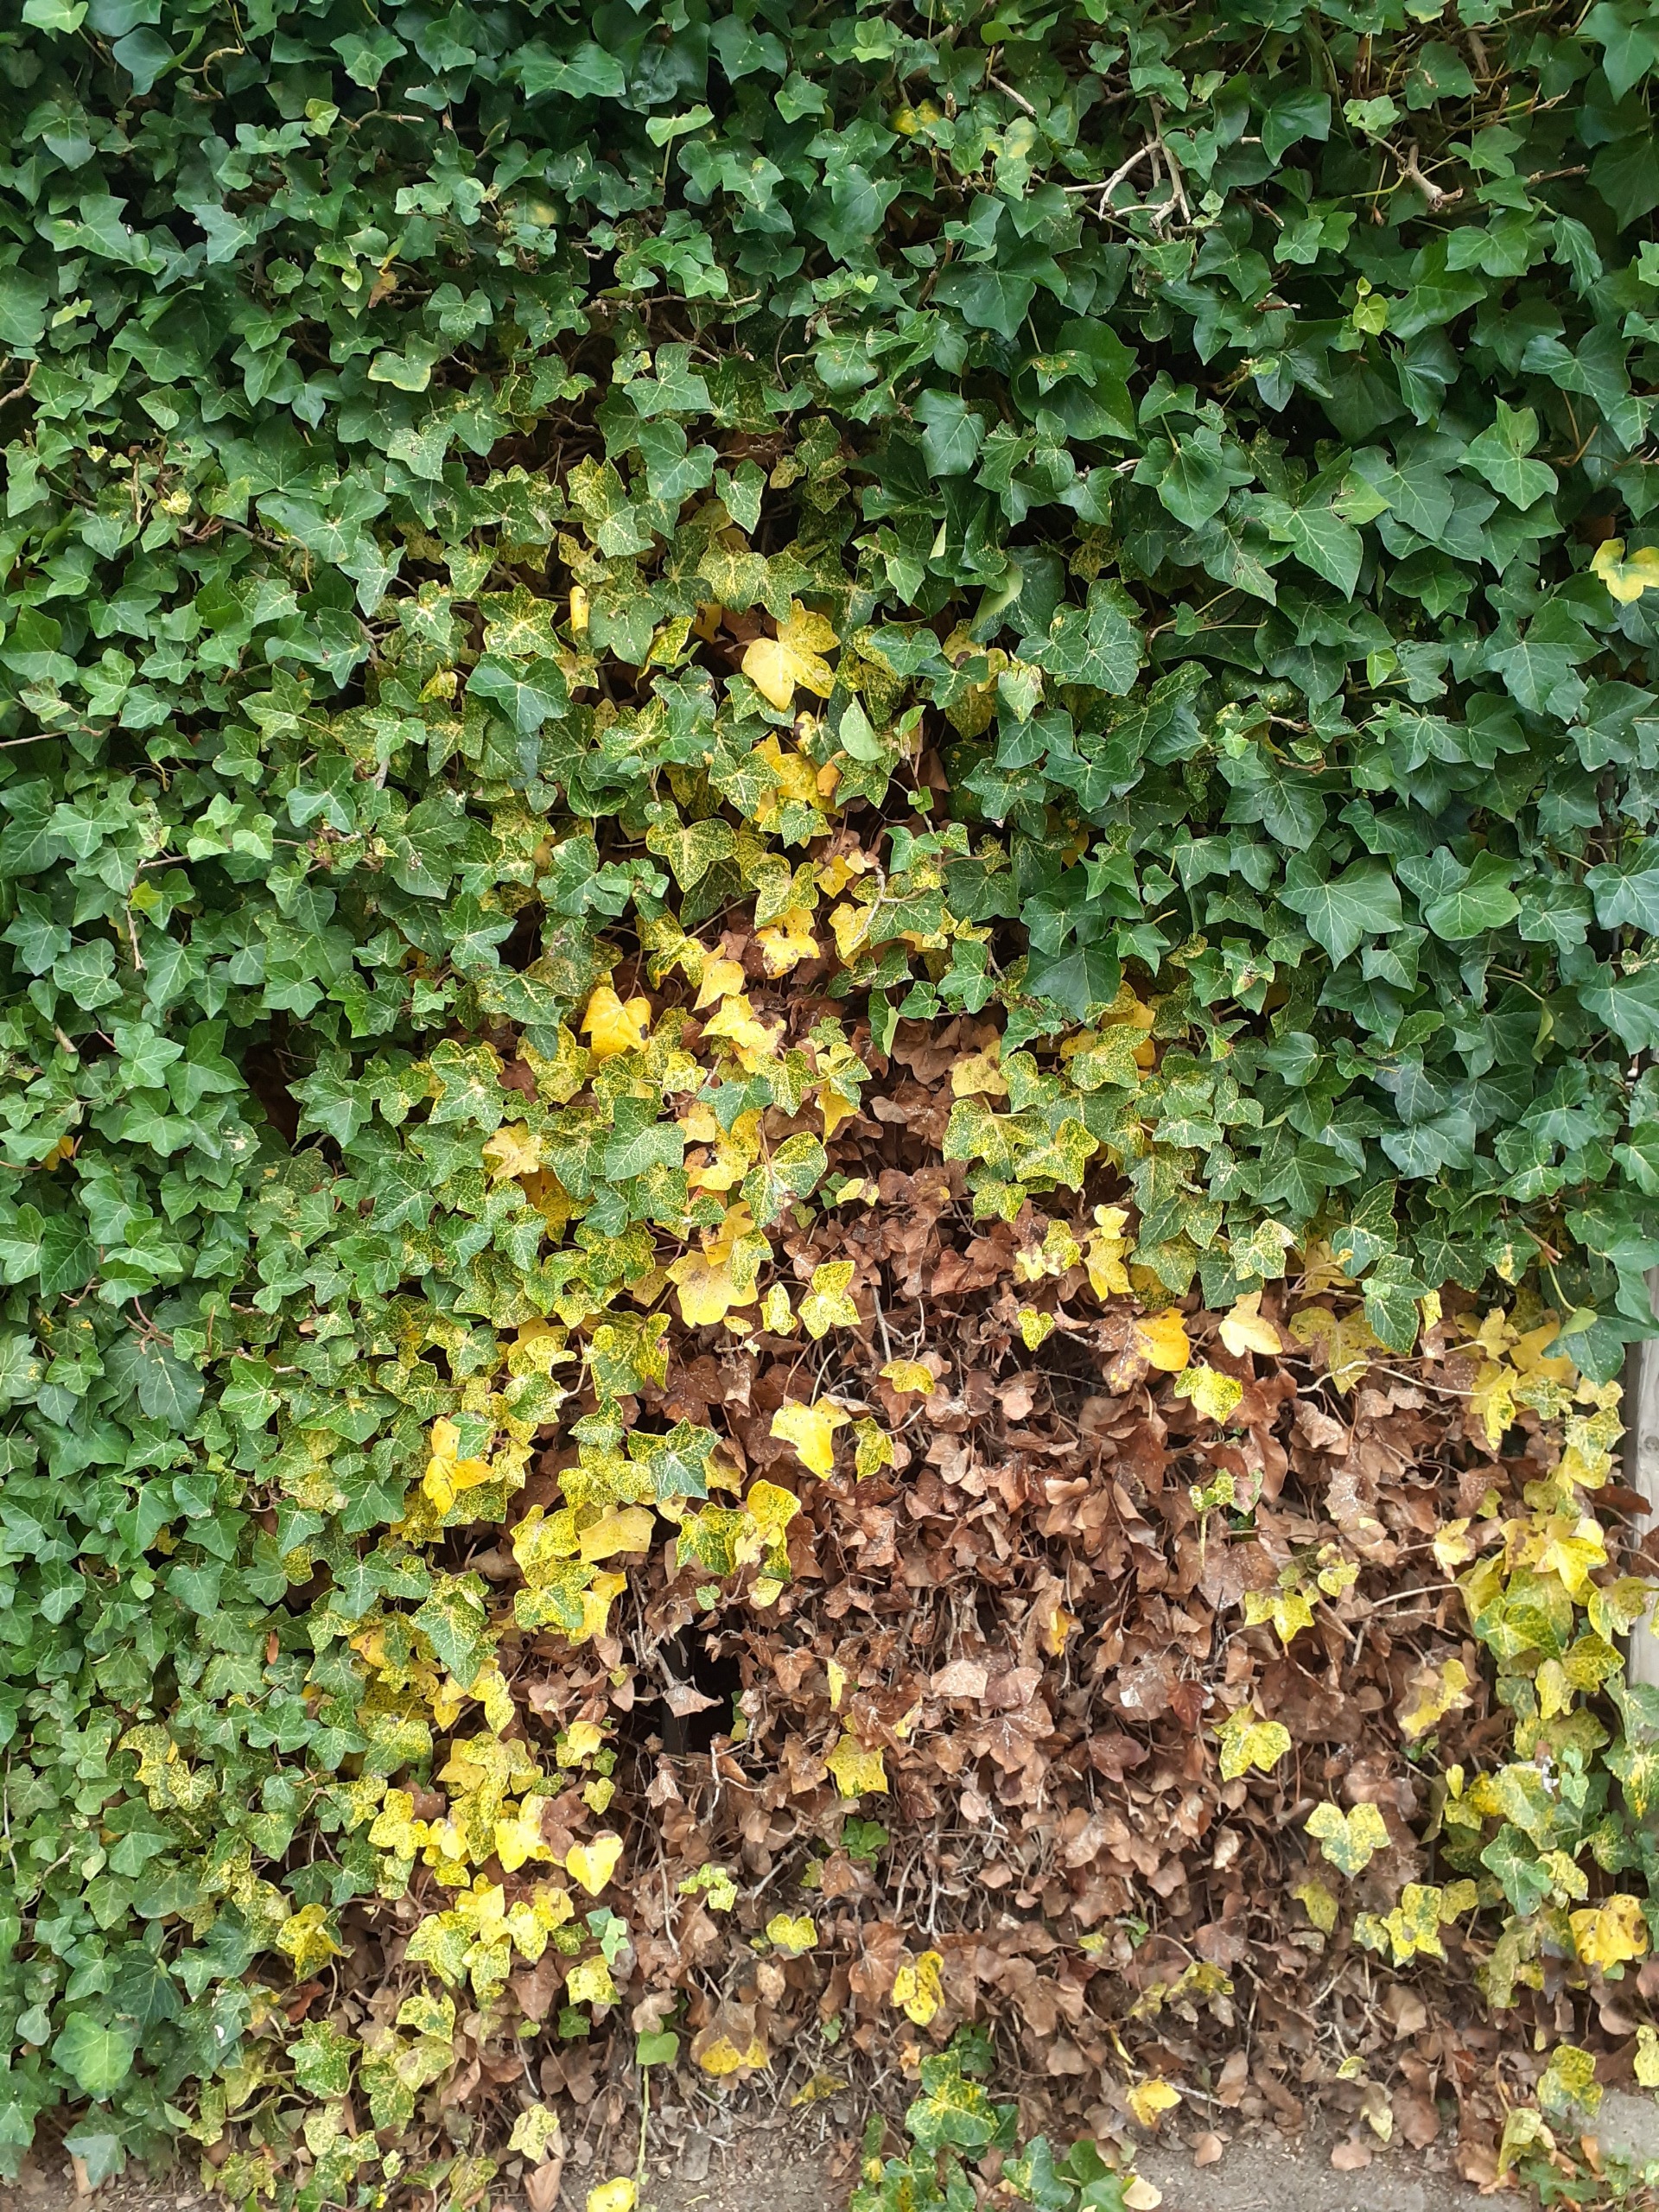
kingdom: Animalia
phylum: Arthropoda
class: Insecta
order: Hemiptera
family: Diaspididae
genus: Aspidiotus
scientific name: Aspidiotus hedericola
